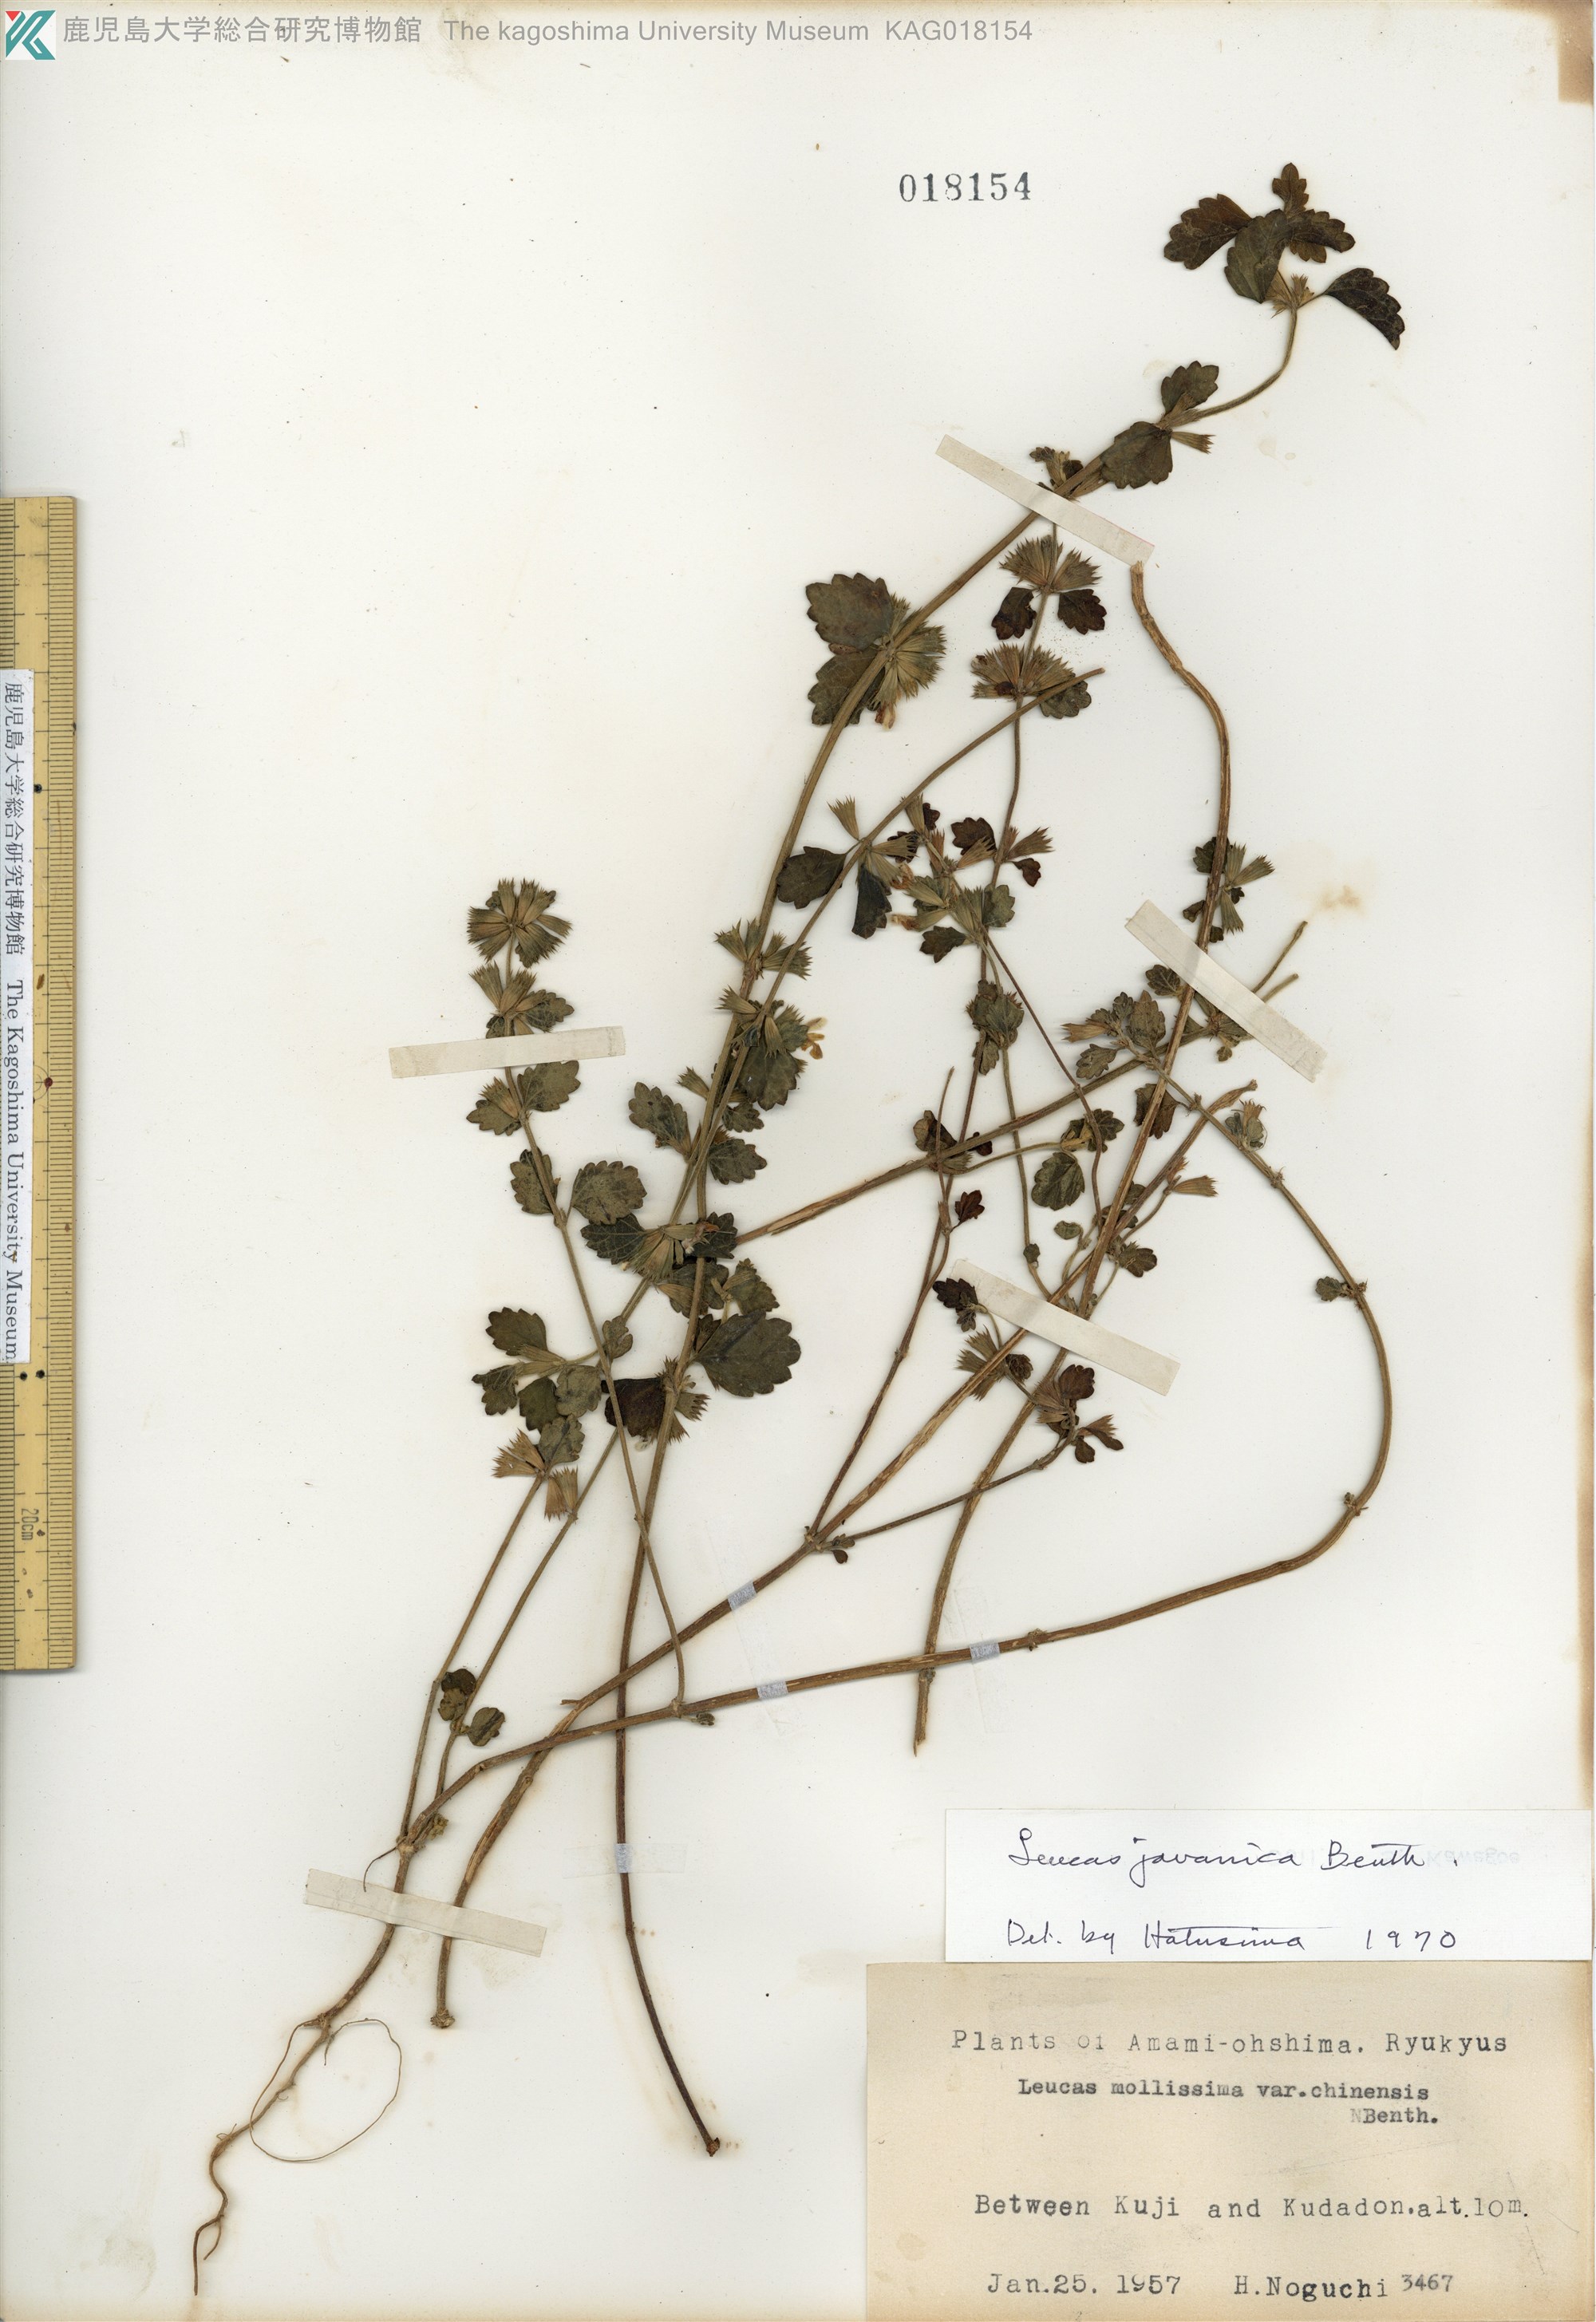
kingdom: Plantae
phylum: Tracheophyta
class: Magnoliopsida
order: Lamiales
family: Lamiaceae
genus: Leucas
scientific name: Leucas chinensis
